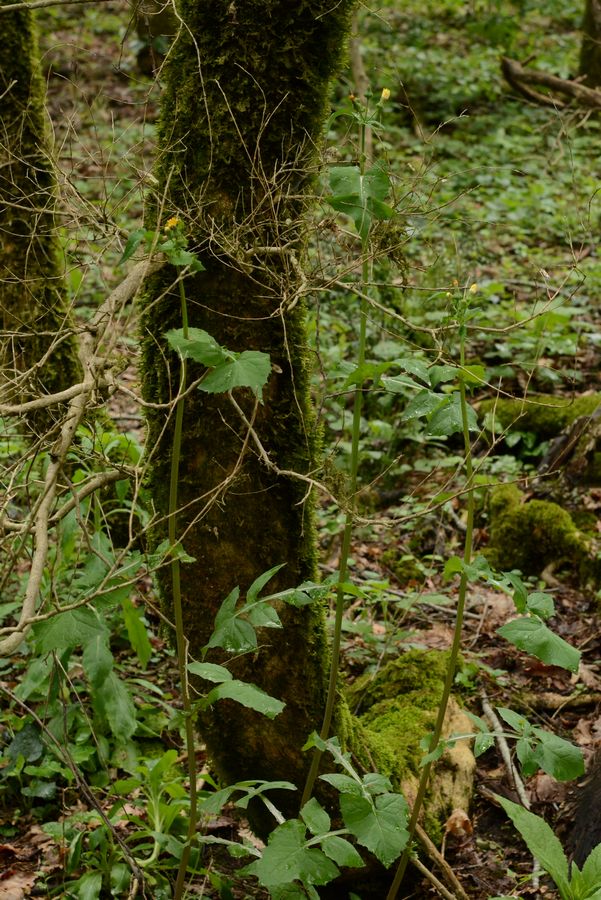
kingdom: Plantae
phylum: Tracheophyta
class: Magnoliopsida
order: Asterales
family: Asteraceae
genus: Sonchus
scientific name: Sonchus oleraceus
